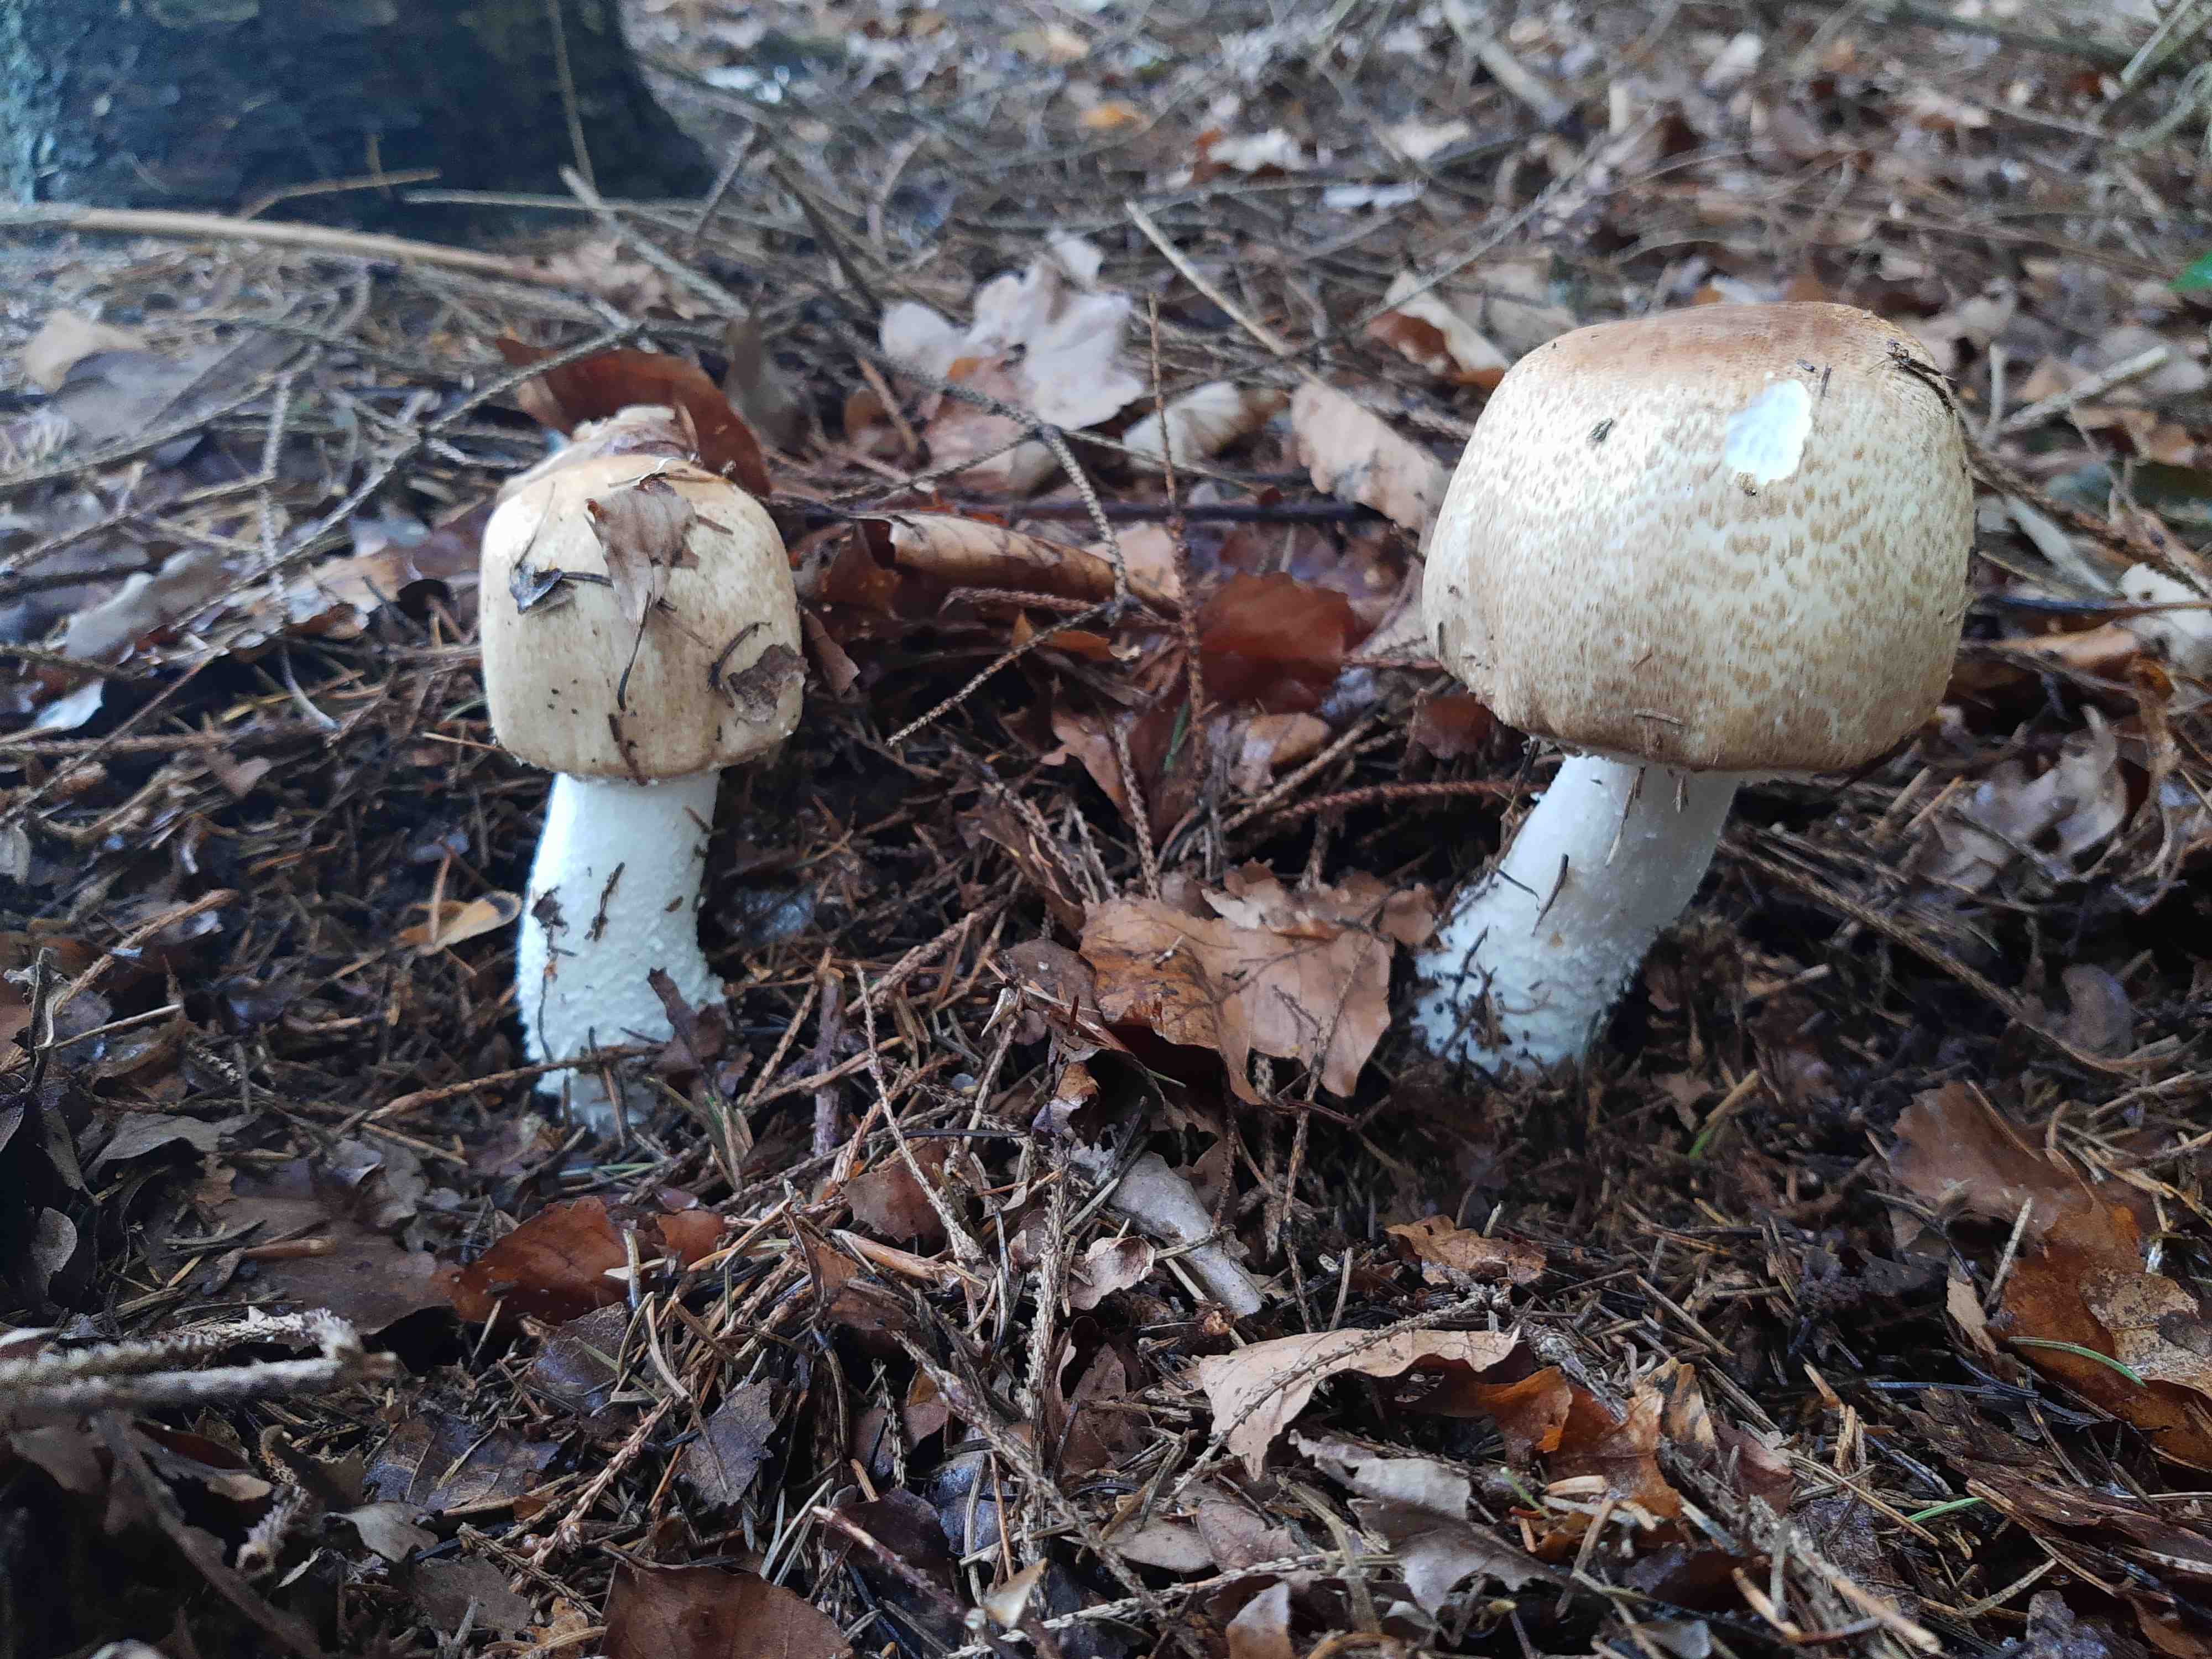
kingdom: Fungi
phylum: Basidiomycota
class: Agaricomycetes
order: Agaricales
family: Agaricaceae
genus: Agaricus
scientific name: Agaricus augustus
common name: prægtig champignon
